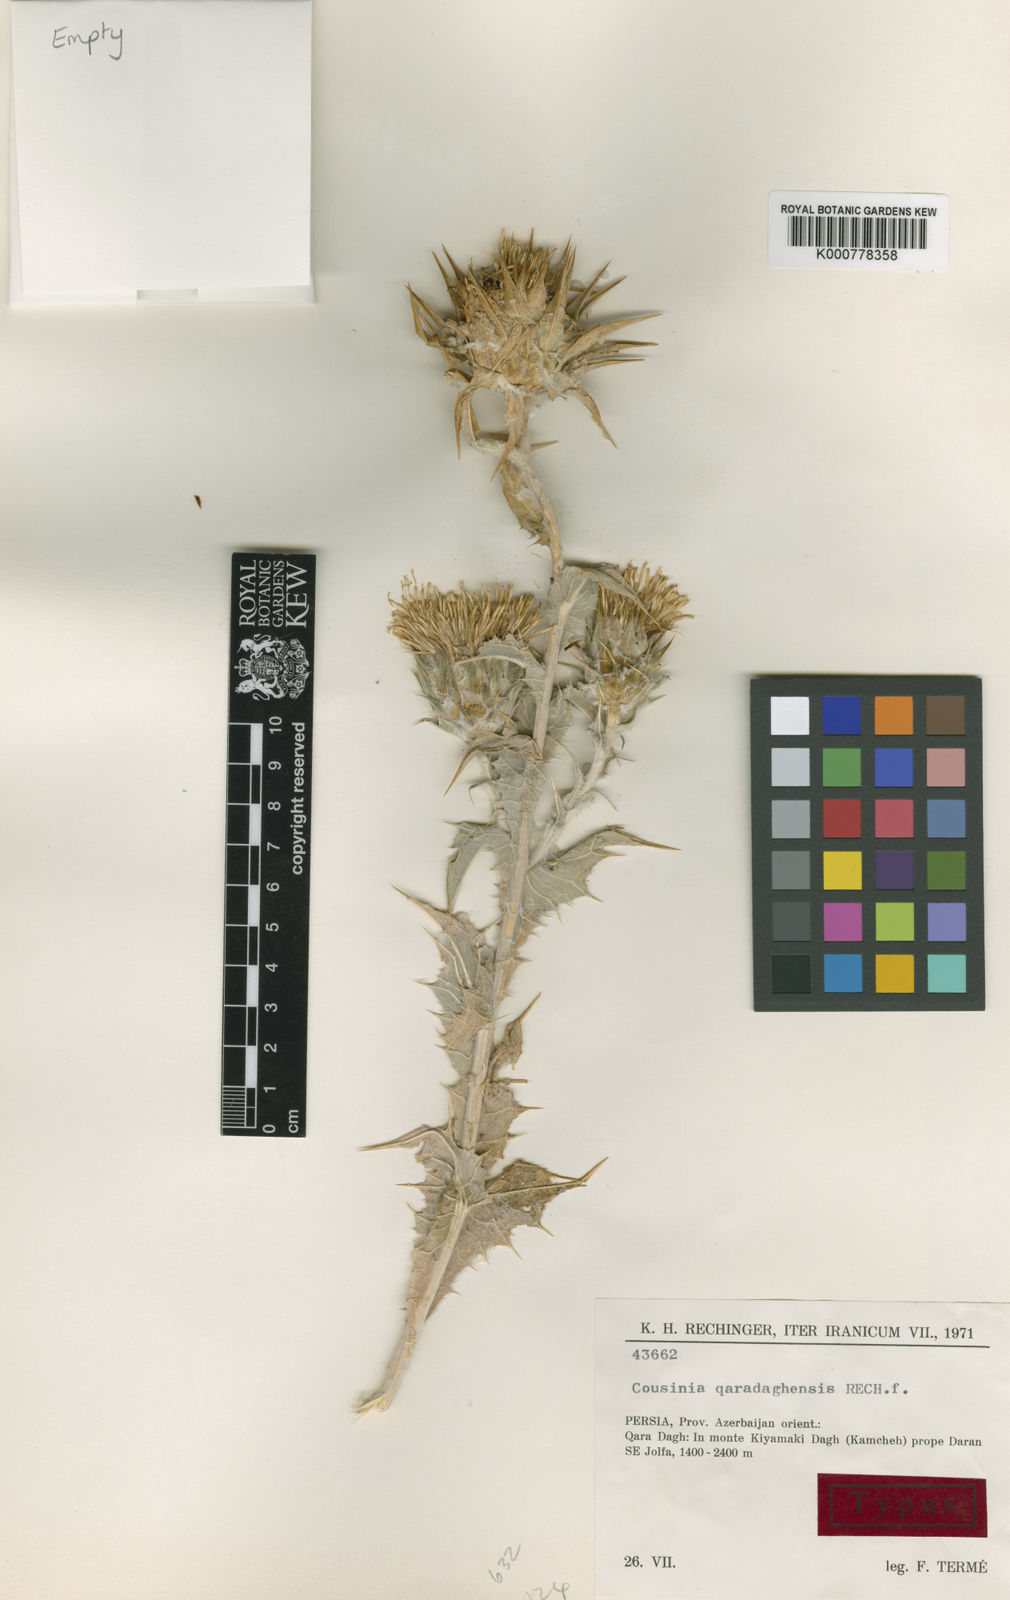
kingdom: Plantae
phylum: Tracheophyta
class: Magnoliopsida
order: Asterales
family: Asteraceae
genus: Cousinia
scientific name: Cousinia qaradaghensis
